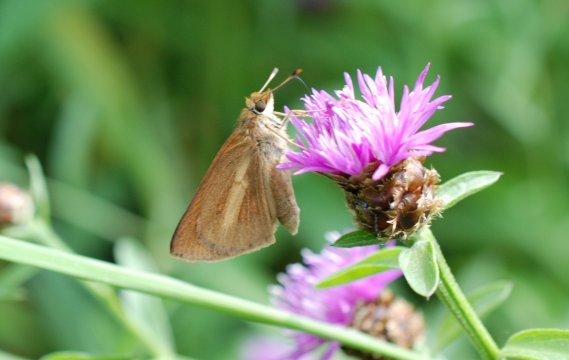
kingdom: Animalia
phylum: Arthropoda
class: Insecta
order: Lepidoptera
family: Hesperiidae
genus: Poanes
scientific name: Poanes viator
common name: Broad-winged Skipper
